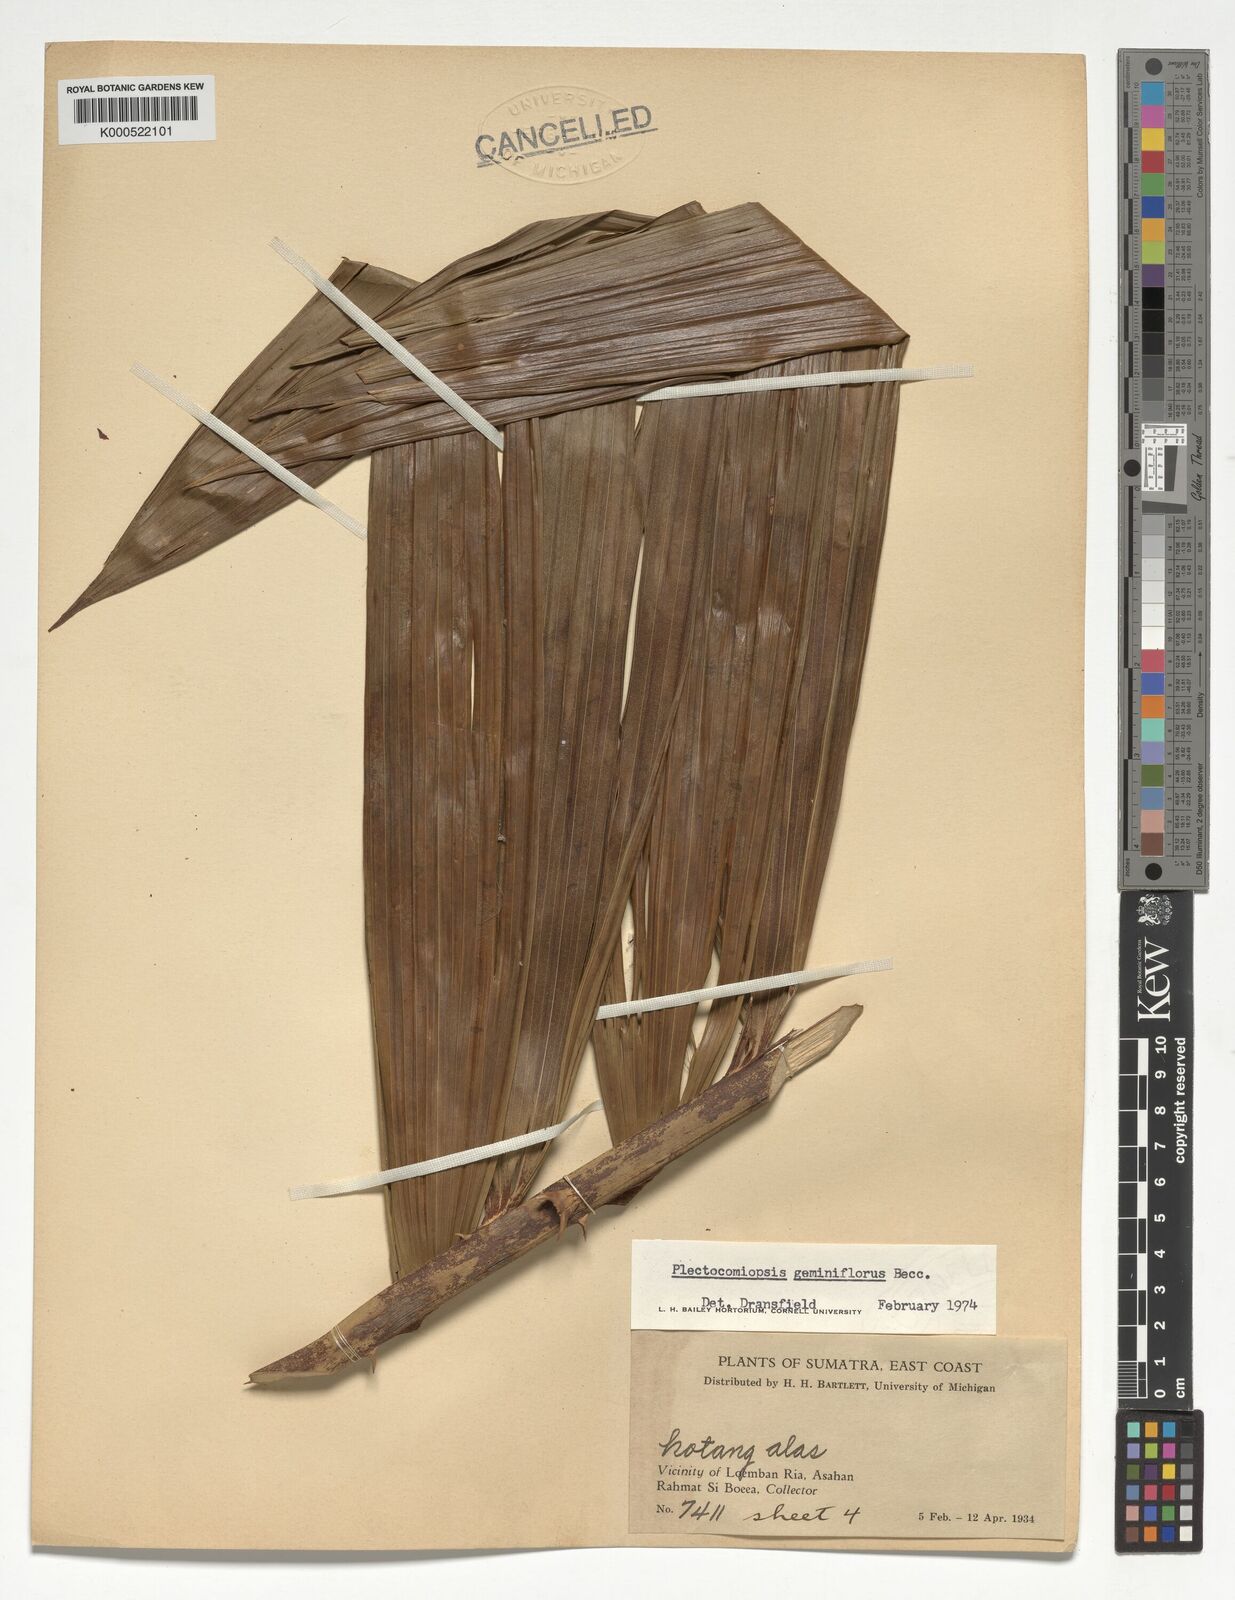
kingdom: Plantae
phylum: Tracheophyta
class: Liliopsida
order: Arecales
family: Arecaceae
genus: Plectocomiopsis
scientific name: Plectocomiopsis geminiflora
